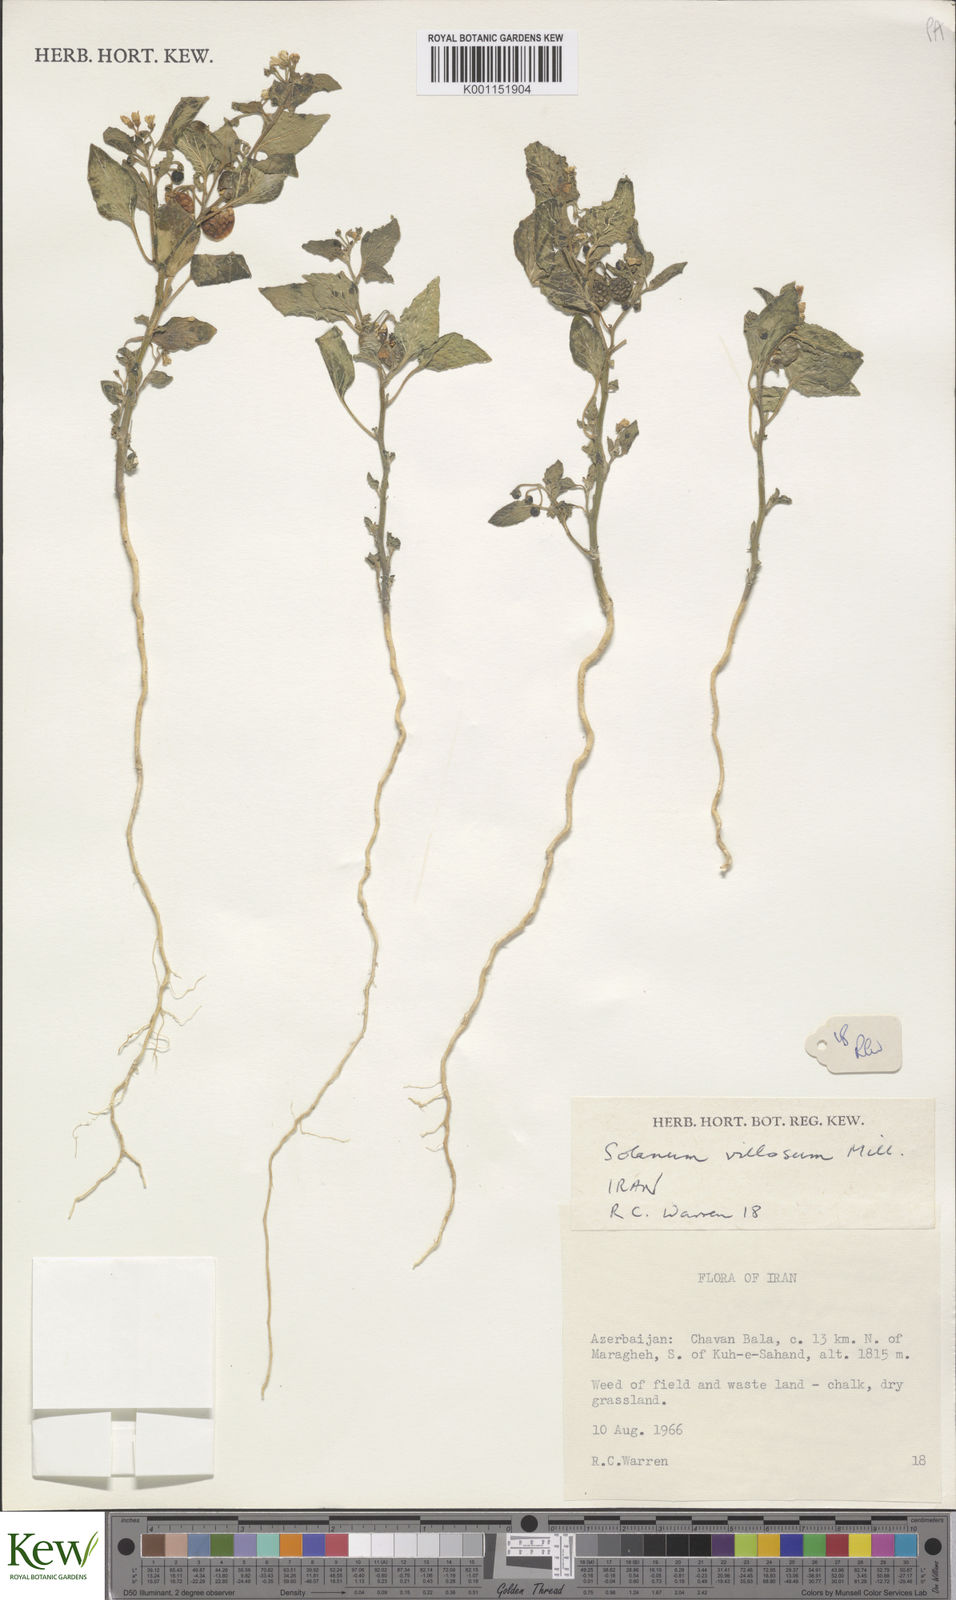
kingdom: Plantae
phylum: Tracheophyta
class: Magnoliopsida
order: Solanales
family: Solanaceae
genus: Solanum
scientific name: Solanum villosum
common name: Red nightshade
